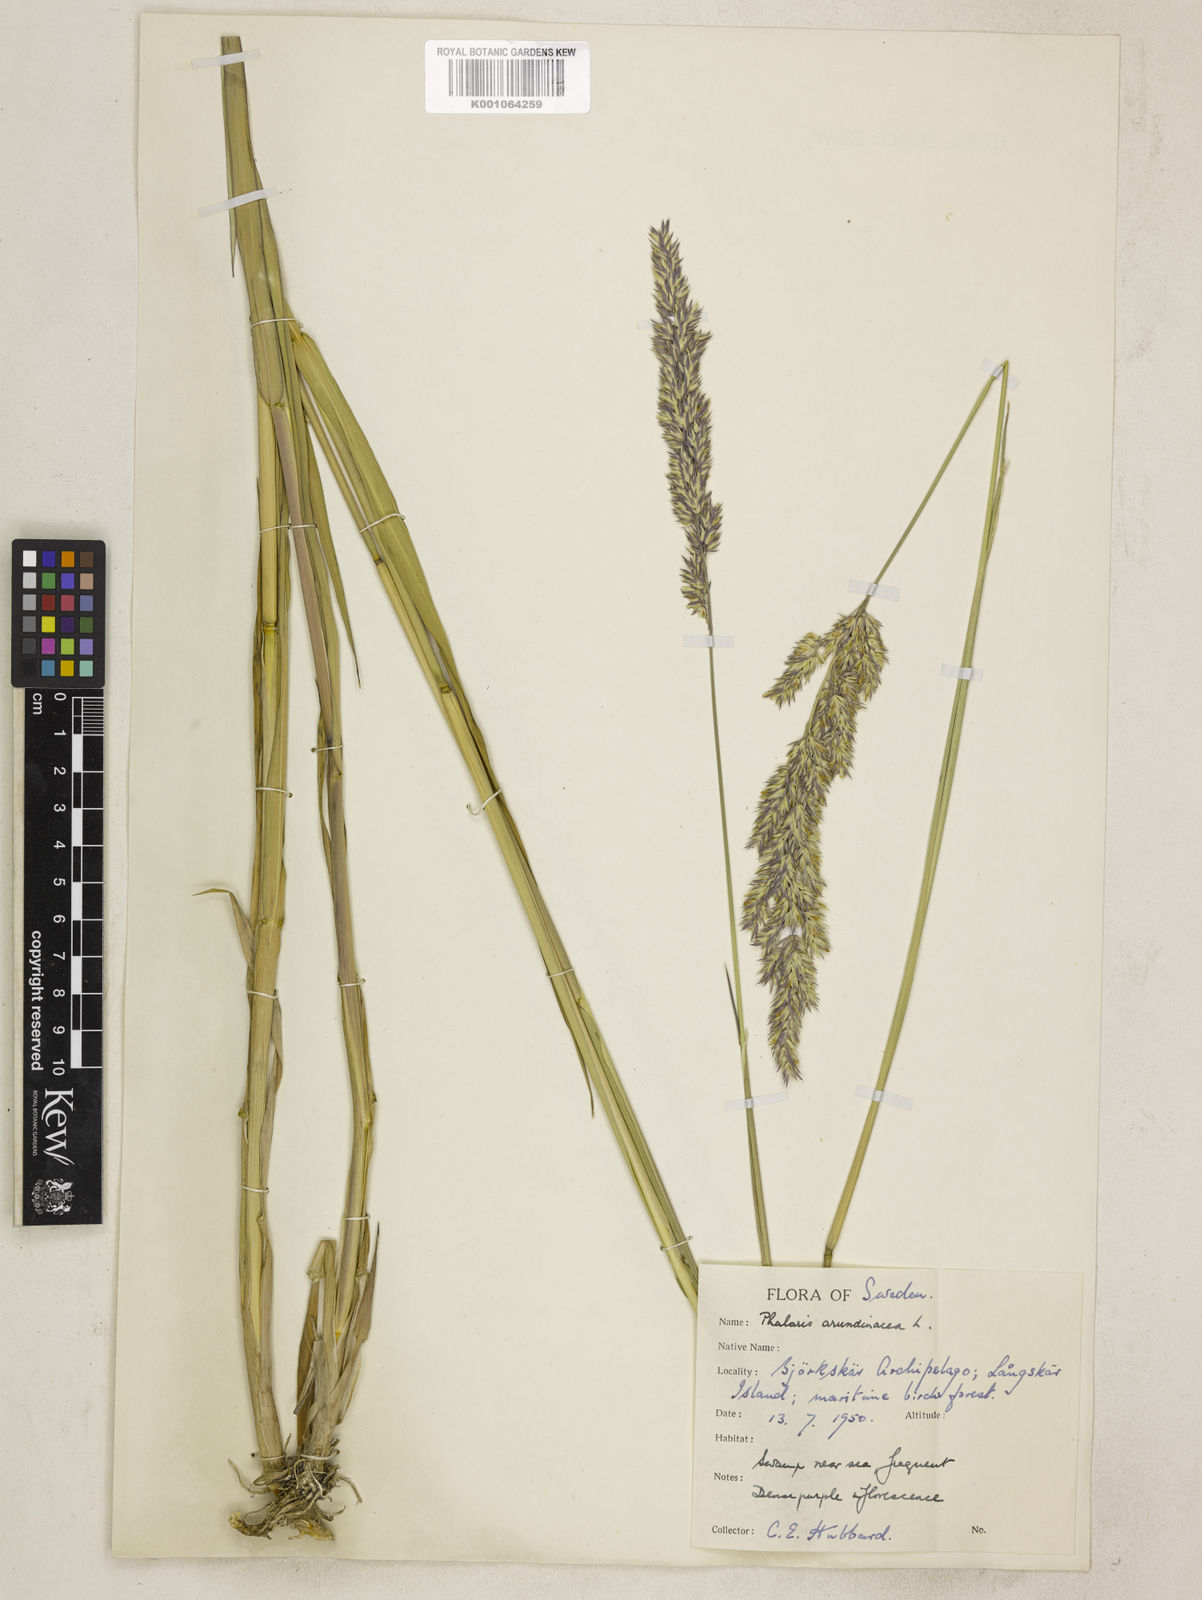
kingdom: Plantae
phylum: Tracheophyta
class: Liliopsida
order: Poales
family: Poaceae
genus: Phalaris
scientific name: Phalaris arundinacea
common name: Reed canary-grass
